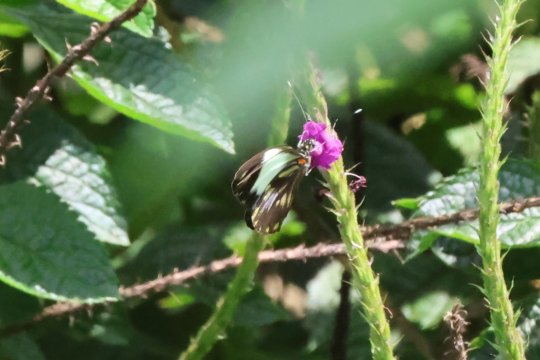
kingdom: Animalia
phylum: Arthropoda
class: Insecta
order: Lepidoptera
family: Pieridae
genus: Pieriballia
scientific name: Pieriballia viardi
